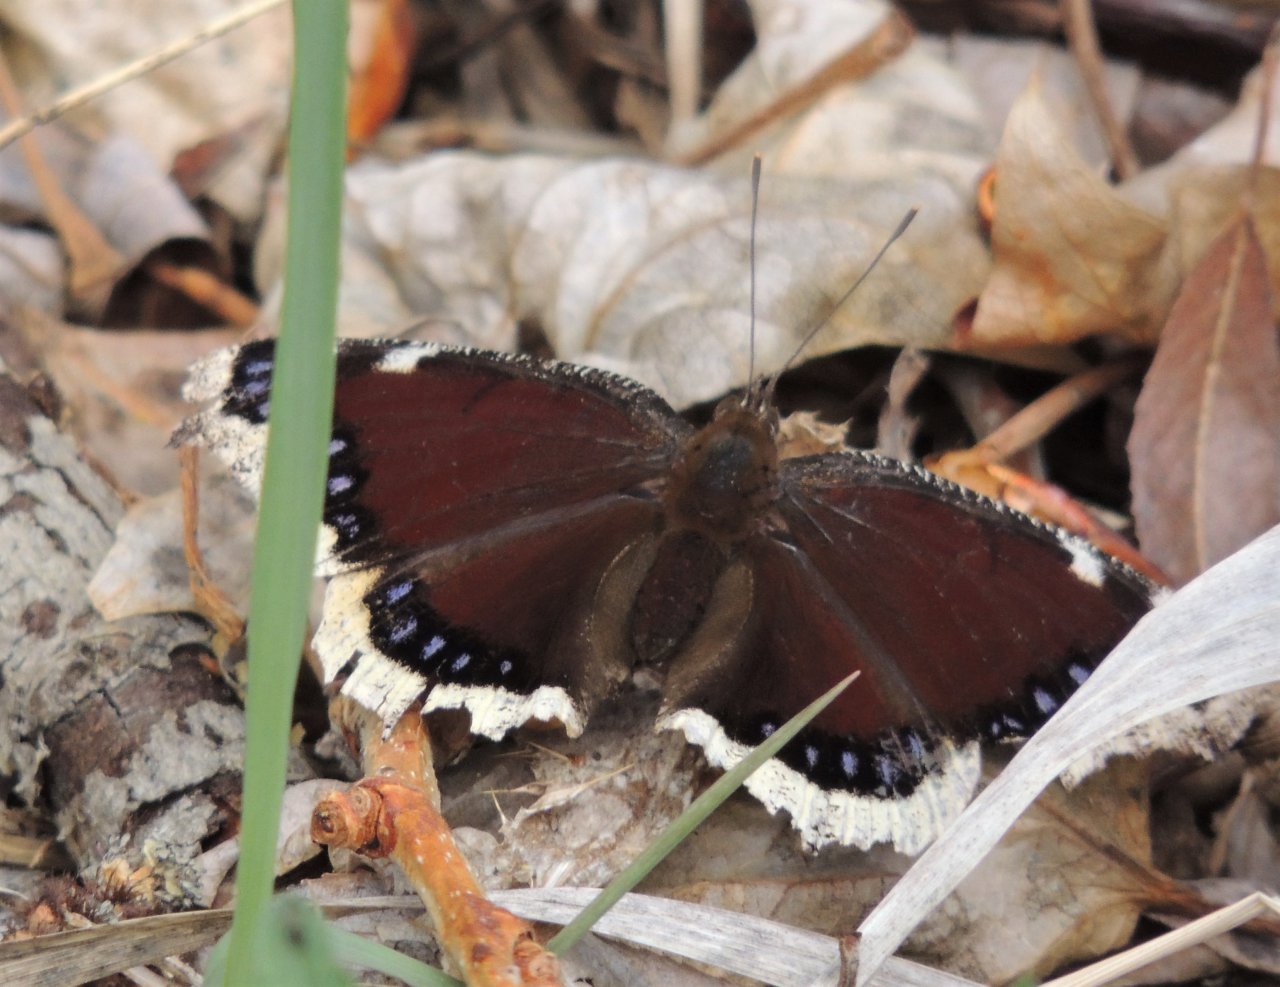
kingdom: Animalia
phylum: Arthropoda
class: Insecta
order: Lepidoptera
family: Nymphalidae
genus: Nymphalis
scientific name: Nymphalis antiopa
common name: Mourning Cloak
